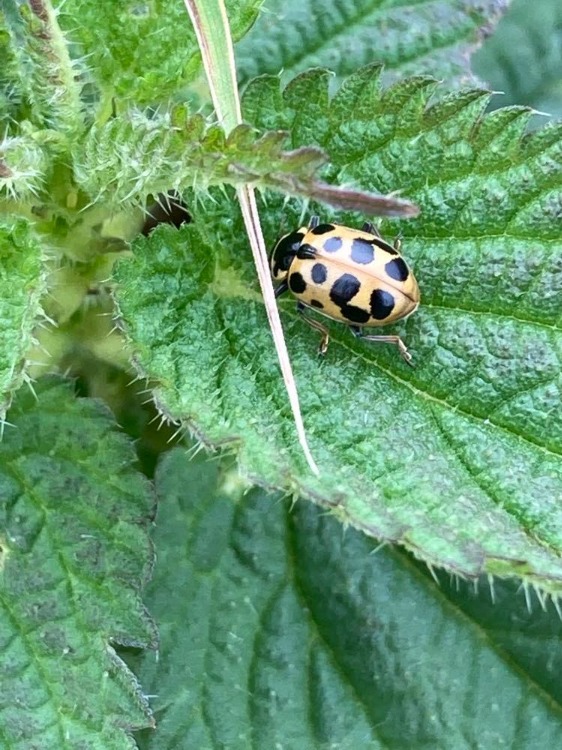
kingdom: Animalia
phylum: Arthropoda
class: Insecta
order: Coleoptera
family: Coccinellidae
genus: Hippodamia
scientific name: Hippodamia tredecimpunctata
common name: Trettenplettet mariehøne
